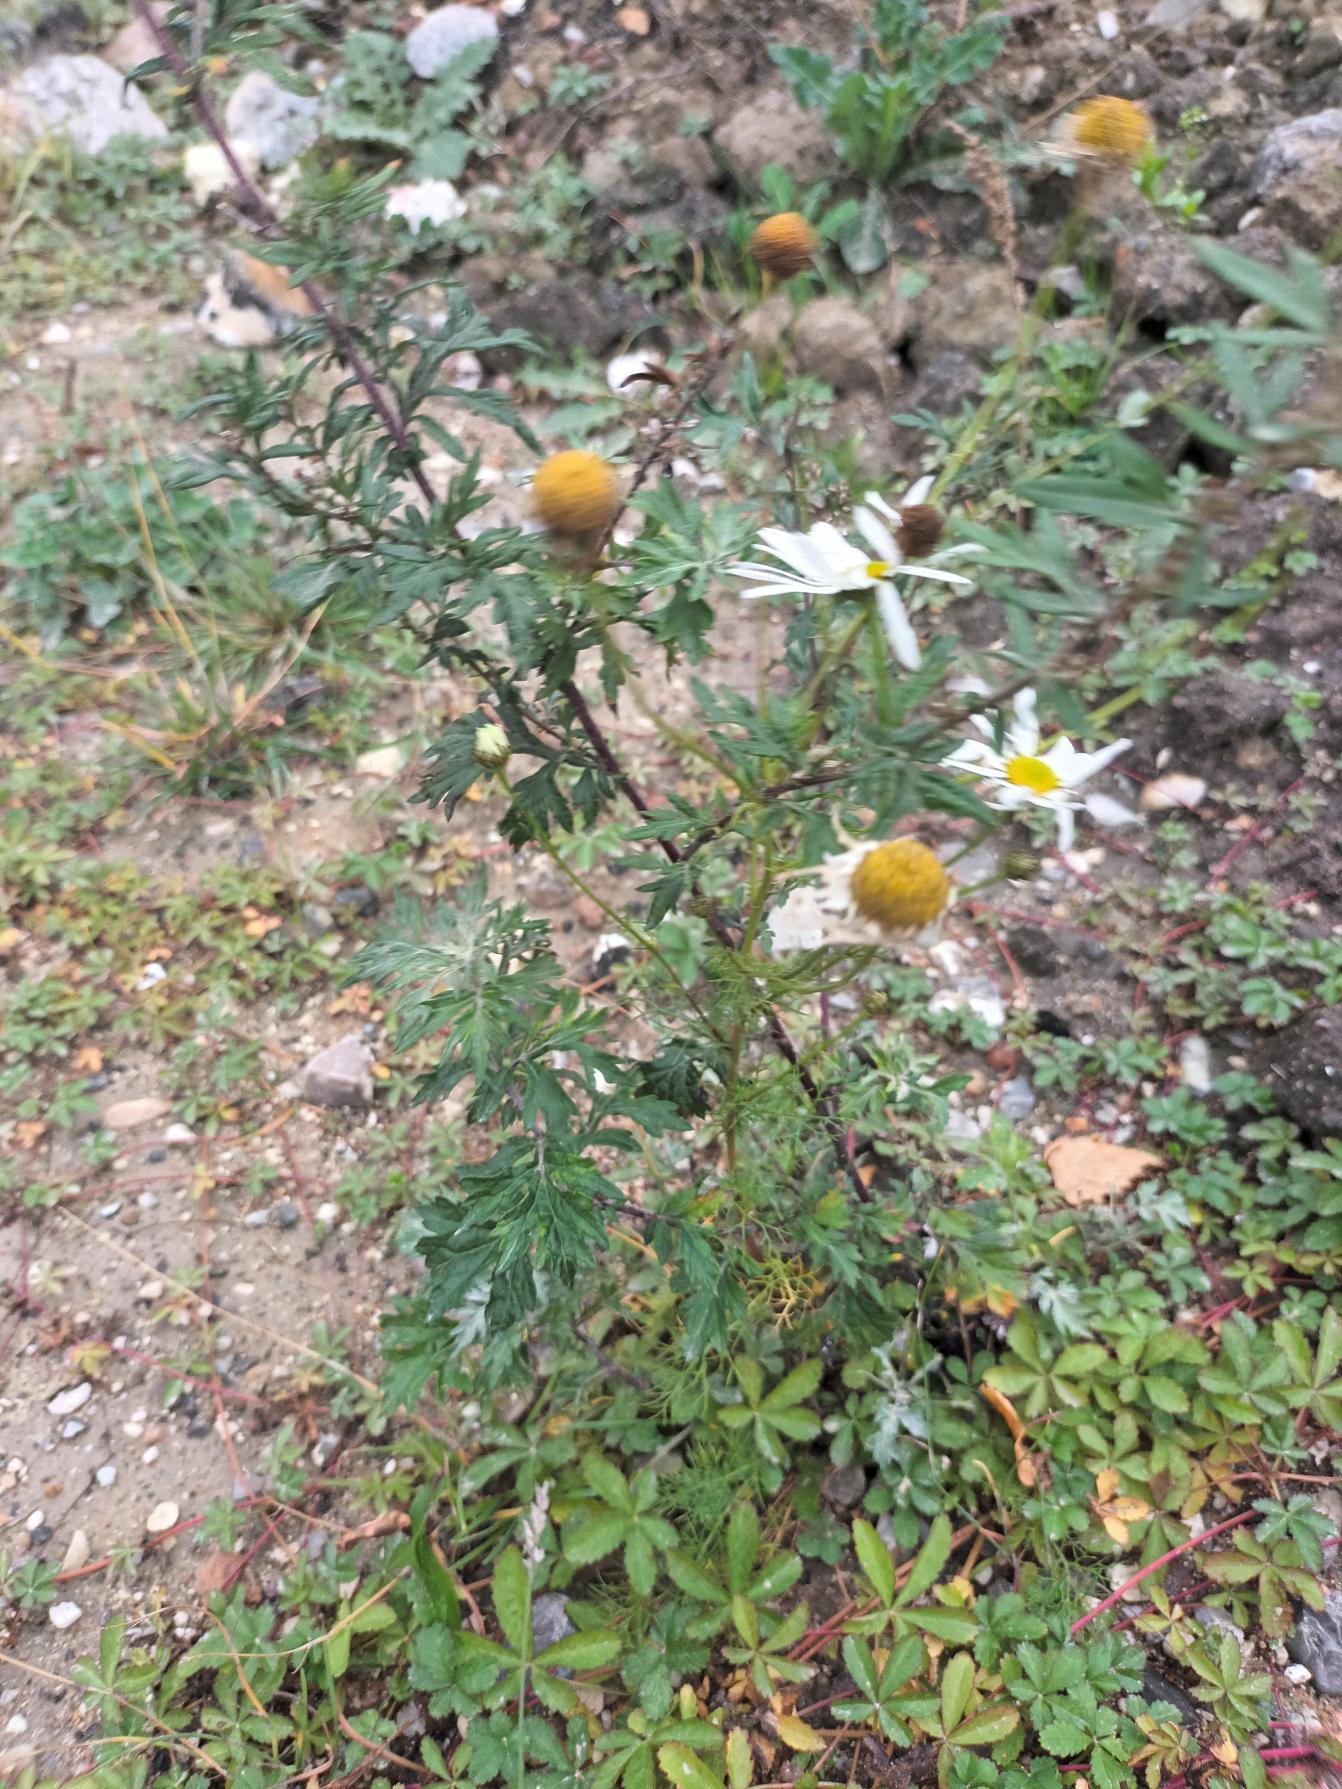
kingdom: Plantae
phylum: Tracheophyta
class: Magnoliopsida
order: Asterales
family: Asteraceae
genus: Tripleurospermum
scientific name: Tripleurospermum inodorum
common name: Lugtløs kamille
